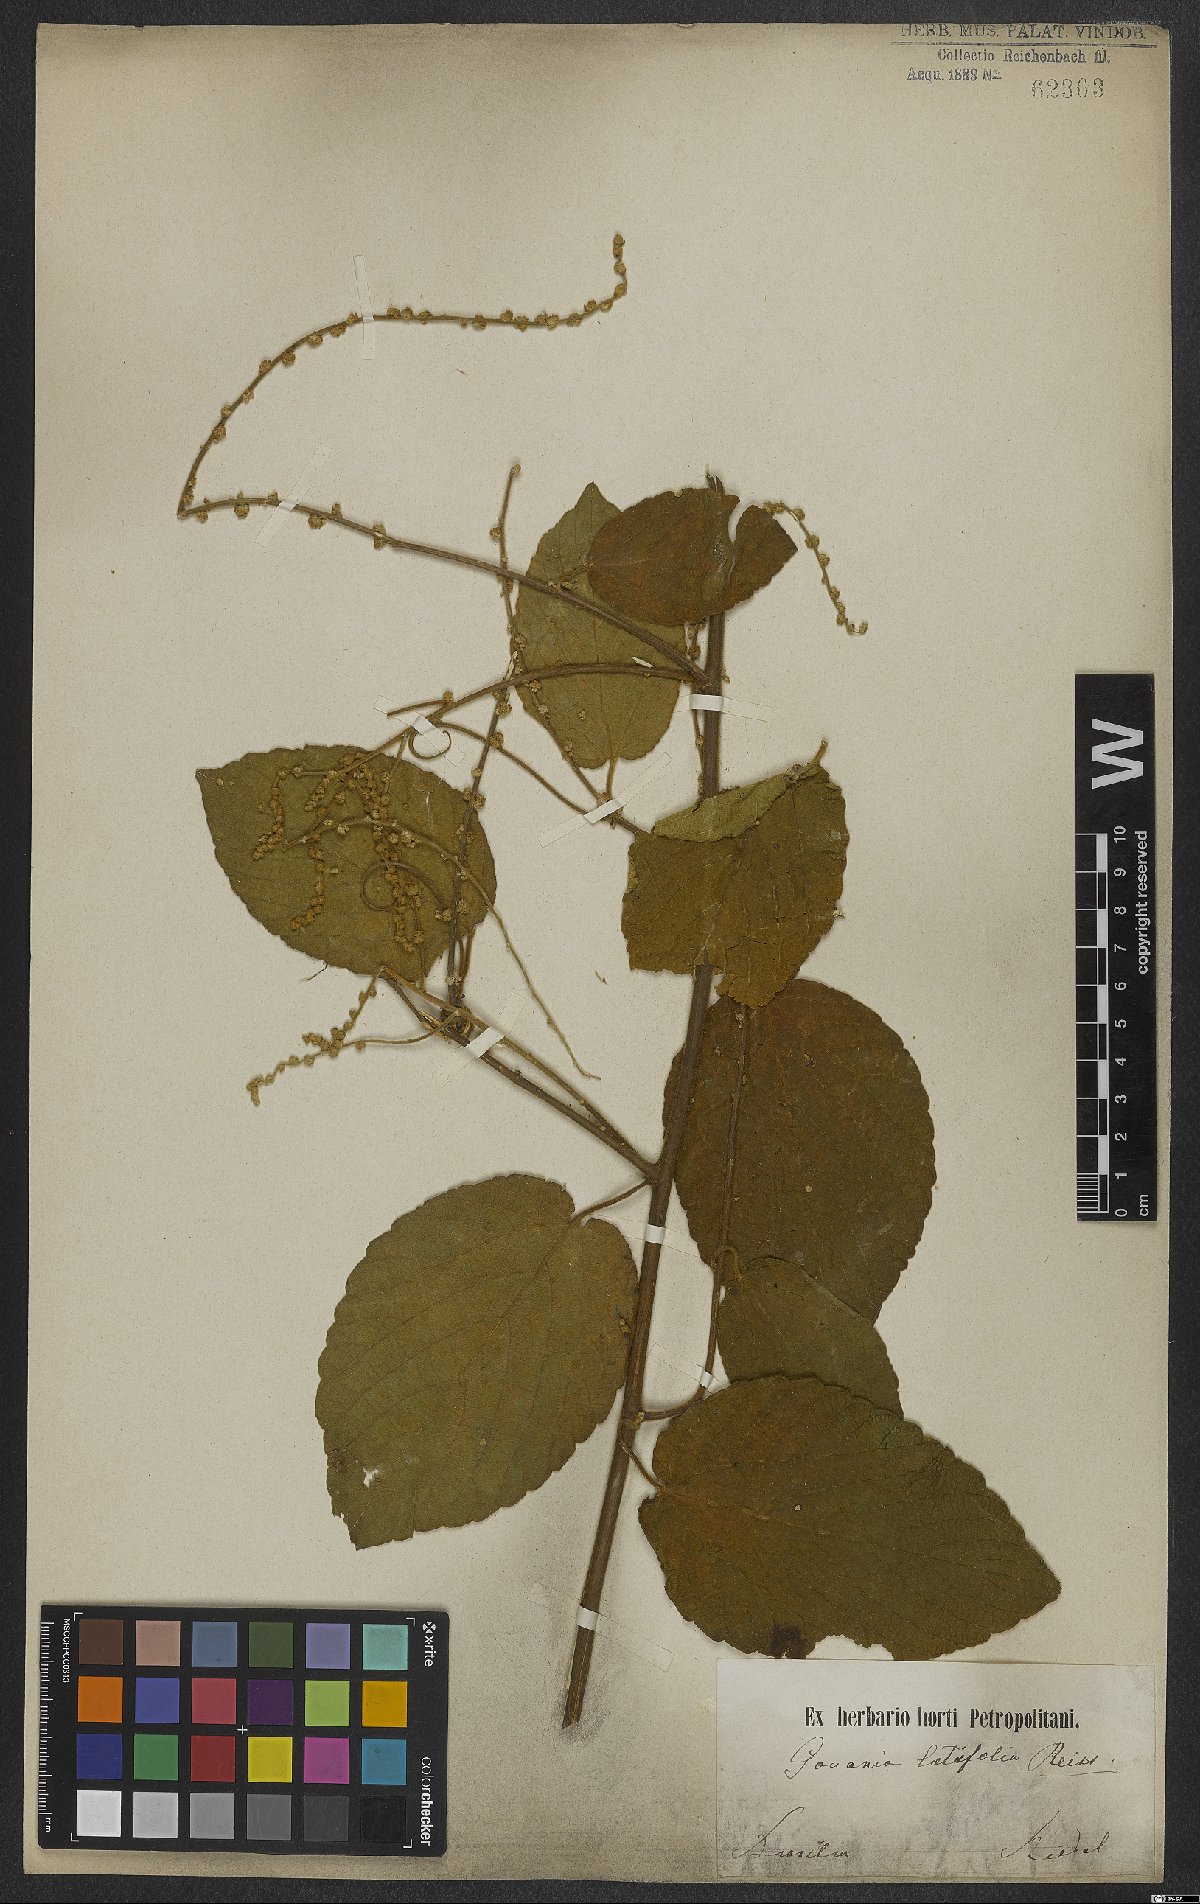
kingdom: Plantae
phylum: Tracheophyta
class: Magnoliopsida
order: Rosales
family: Rhamnaceae
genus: Gouania
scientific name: Gouania latifolia
